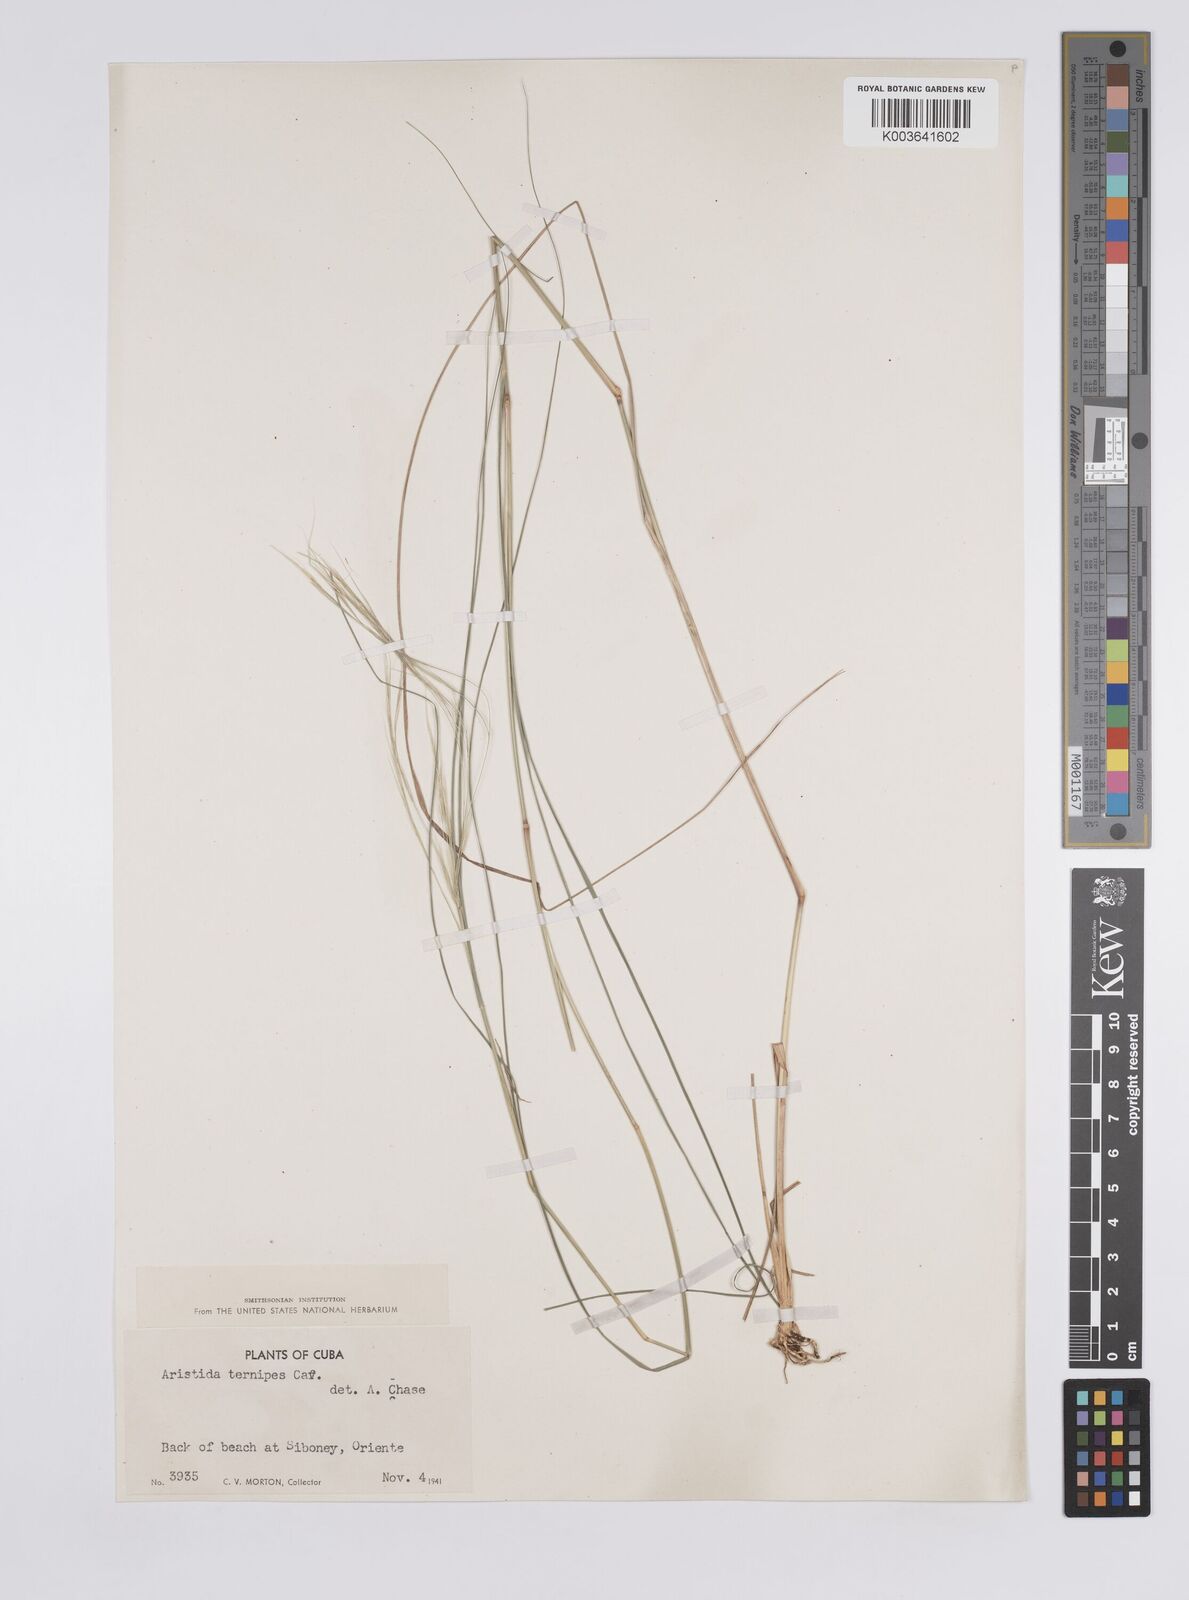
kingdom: Plantae
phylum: Tracheophyta
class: Liliopsida
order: Poales
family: Poaceae
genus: Aristida
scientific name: Aristida ternipes
